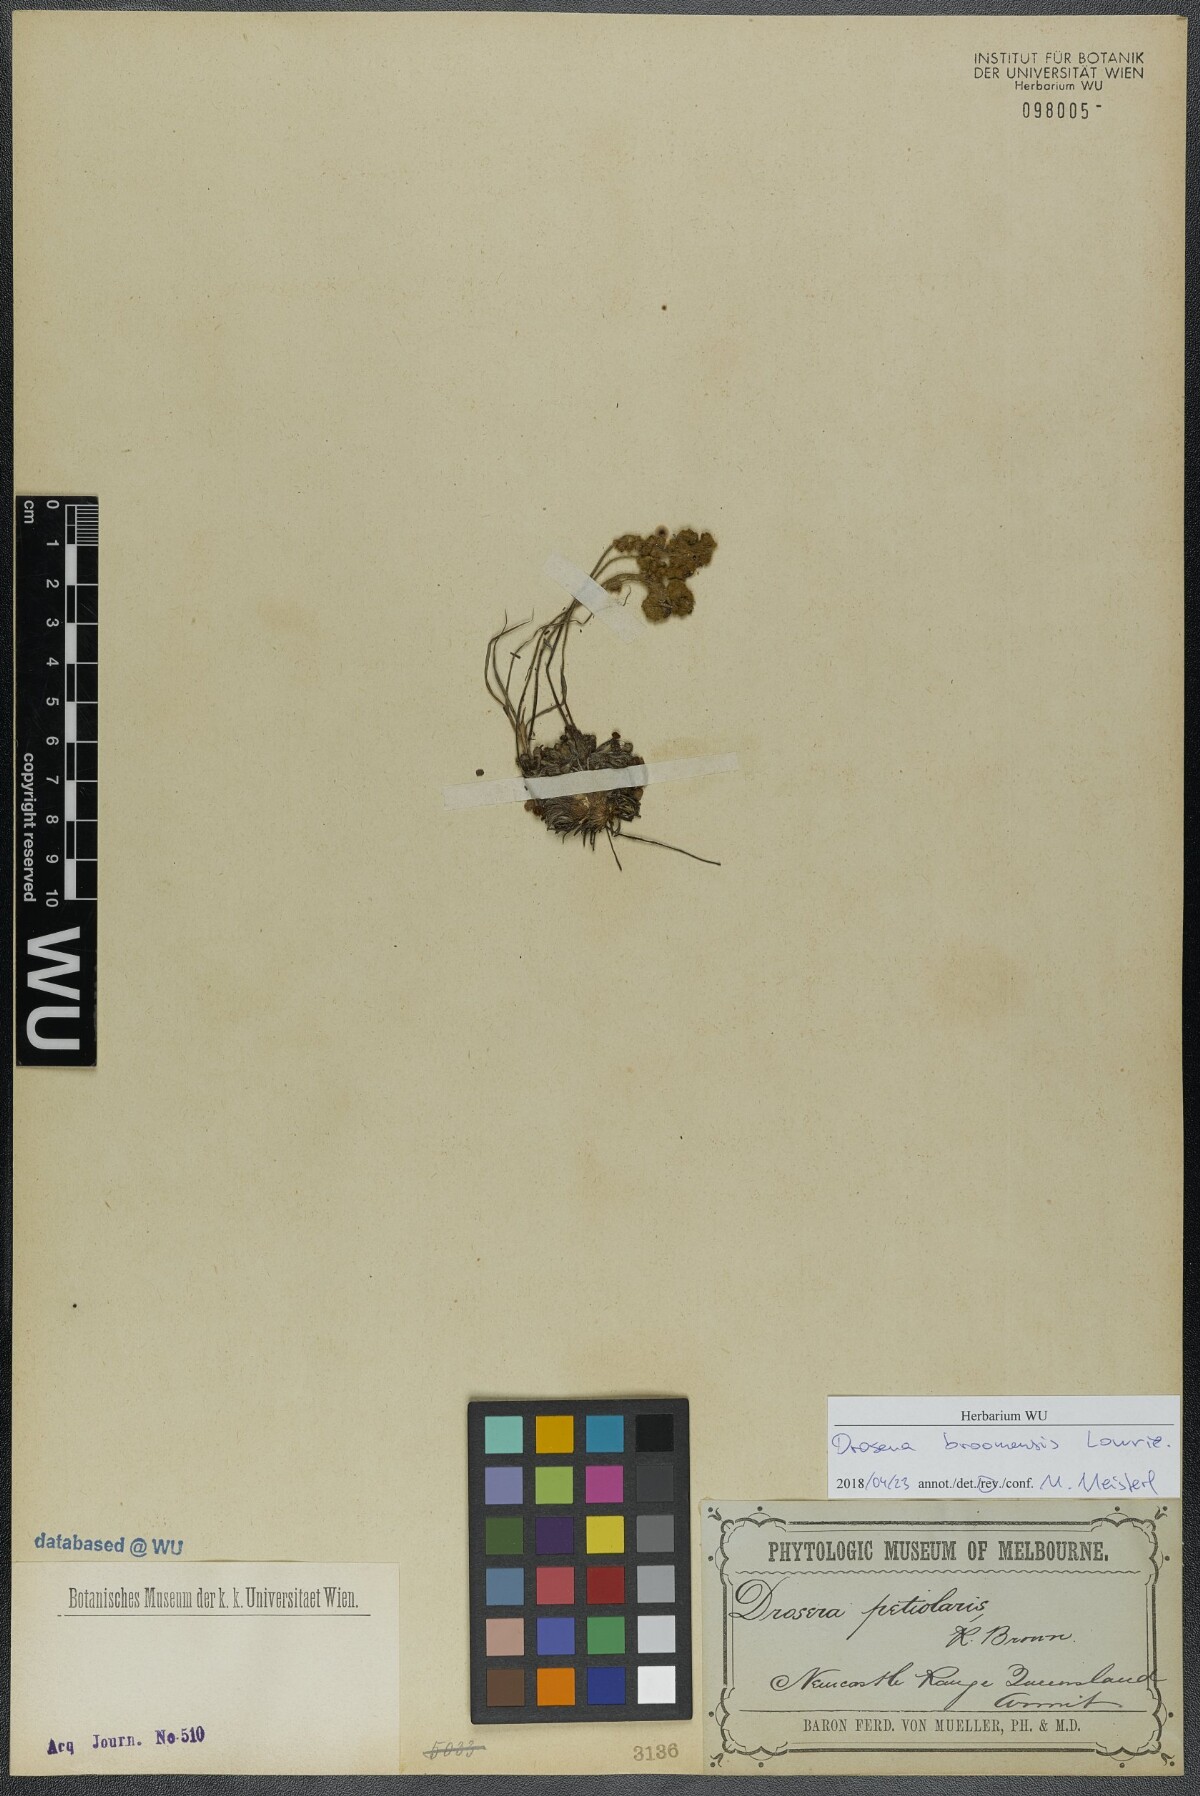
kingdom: Plantae
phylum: Tracheophyta
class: Magnoliopsida
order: Caryophyllales
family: Droseraceae
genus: Drosera
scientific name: Drosera broomensis
